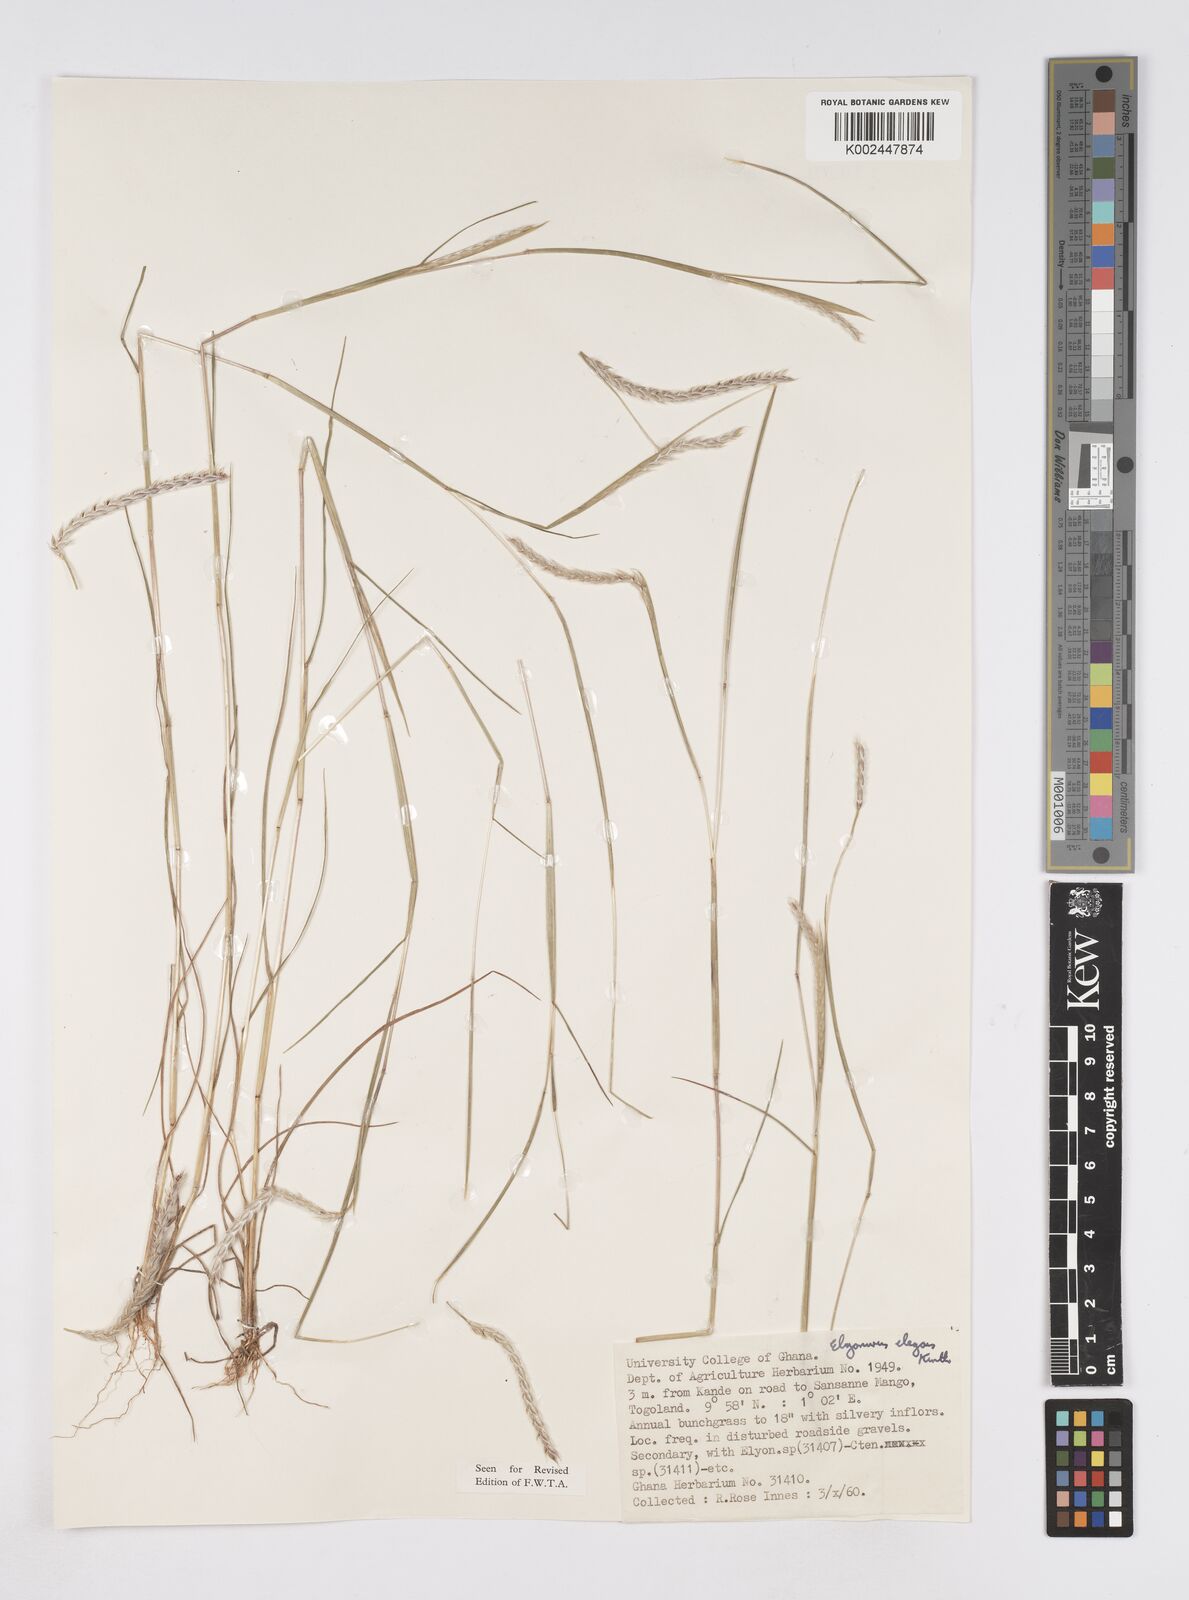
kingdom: Plantae
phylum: Tracheophyta
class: Liliopsida
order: Poales
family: Poaceae
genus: Elionurus
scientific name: Elionurus elegans
